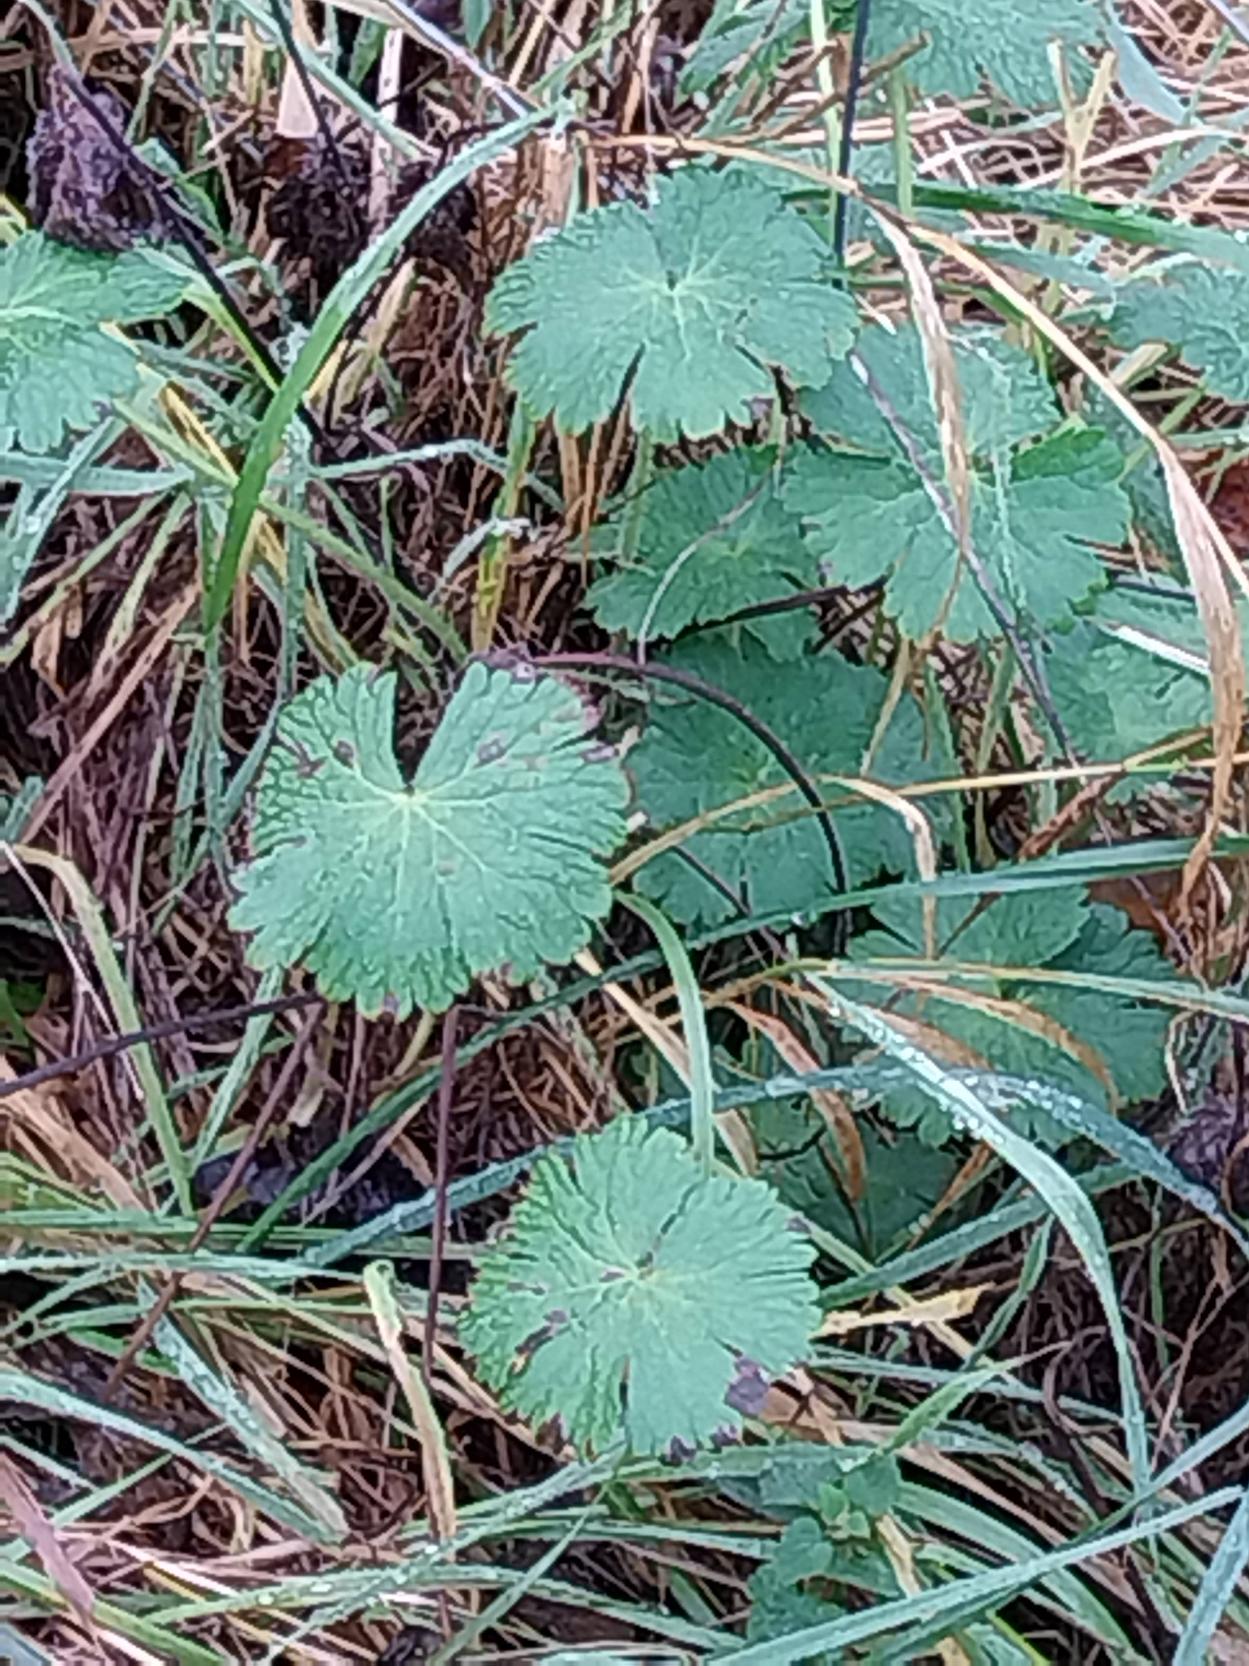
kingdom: Plantae
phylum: Tracheophyta
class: Magnoliopsida
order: Geraniales
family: Geraniaceae
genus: Geranium
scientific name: Geranium pyrenaicum
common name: Pyrenæisk storkenæb
